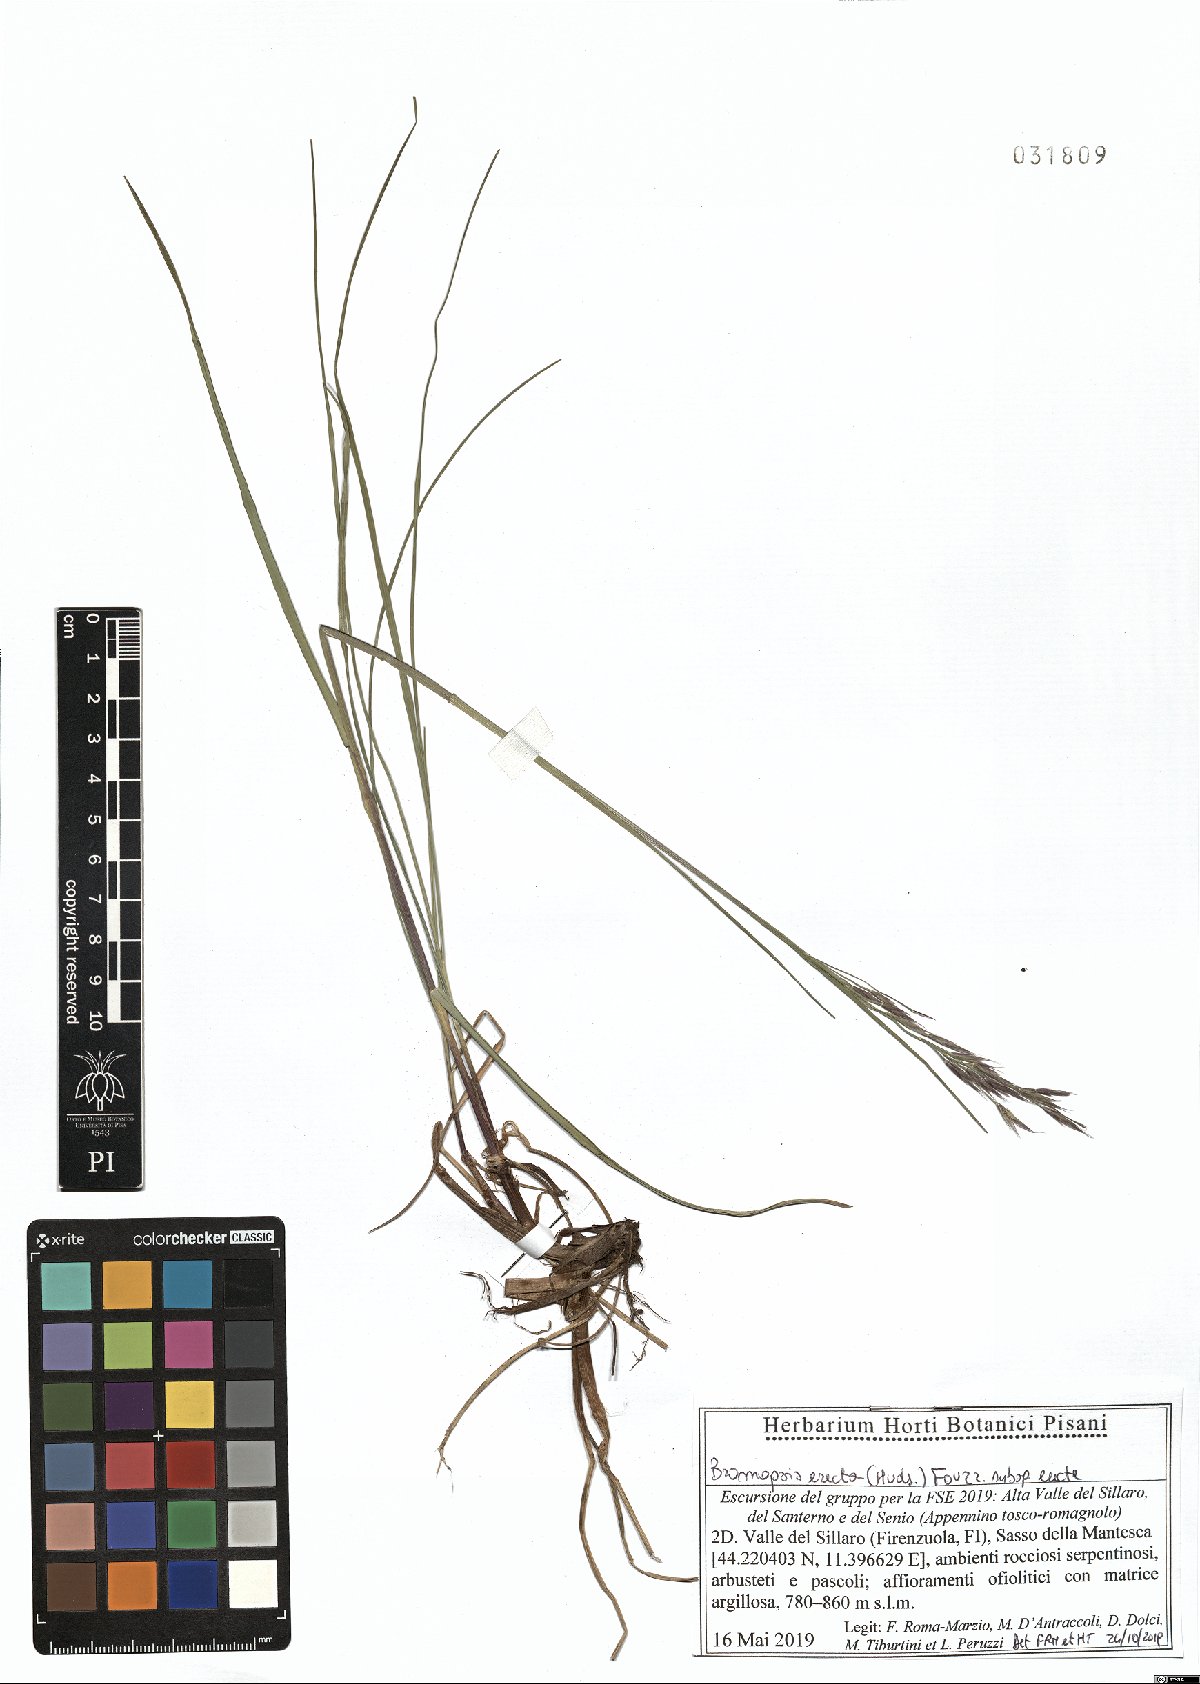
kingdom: Plantae
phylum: Tracheophyta
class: Liliopsida
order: Poales
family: Poaceae
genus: Bromus
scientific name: Bromus erectus
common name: Erect brome
